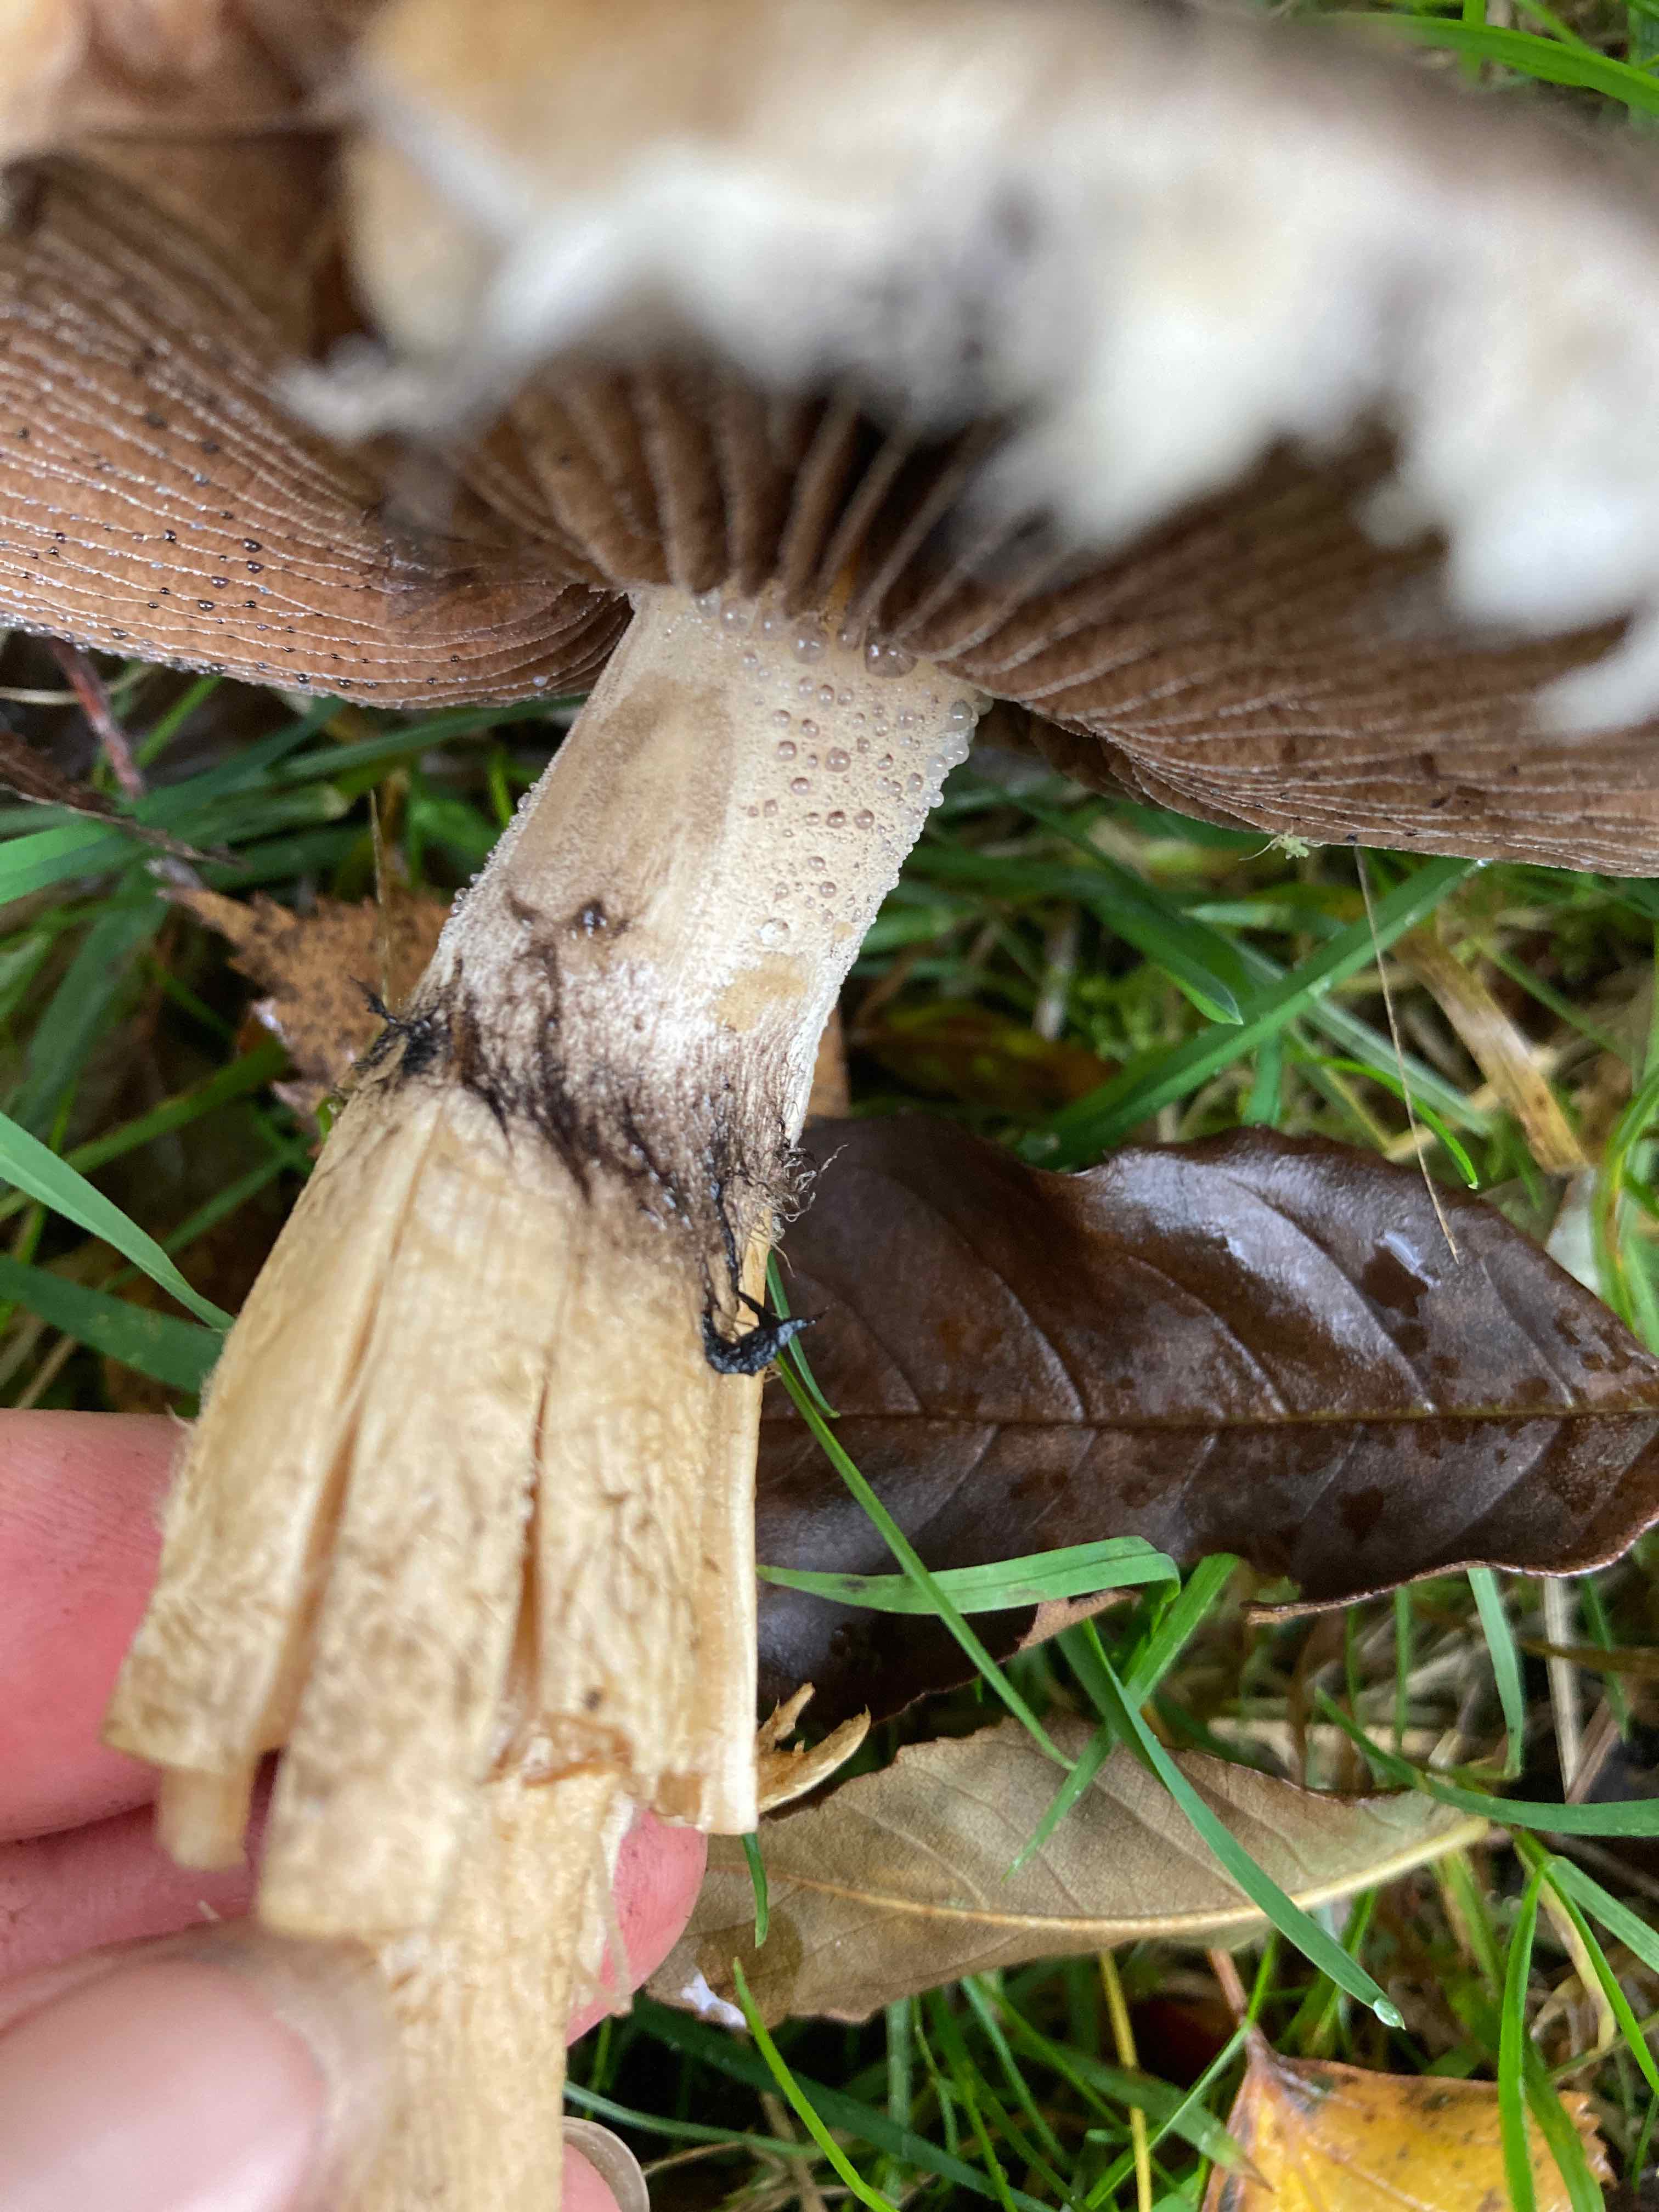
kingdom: Fungi
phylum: Basidiomycota
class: Agaricomycetes
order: Agaricales
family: Psathyrellaceae
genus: Lacrymaria
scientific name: Lacrymaria lacrymabunda
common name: grædende mørkhat
